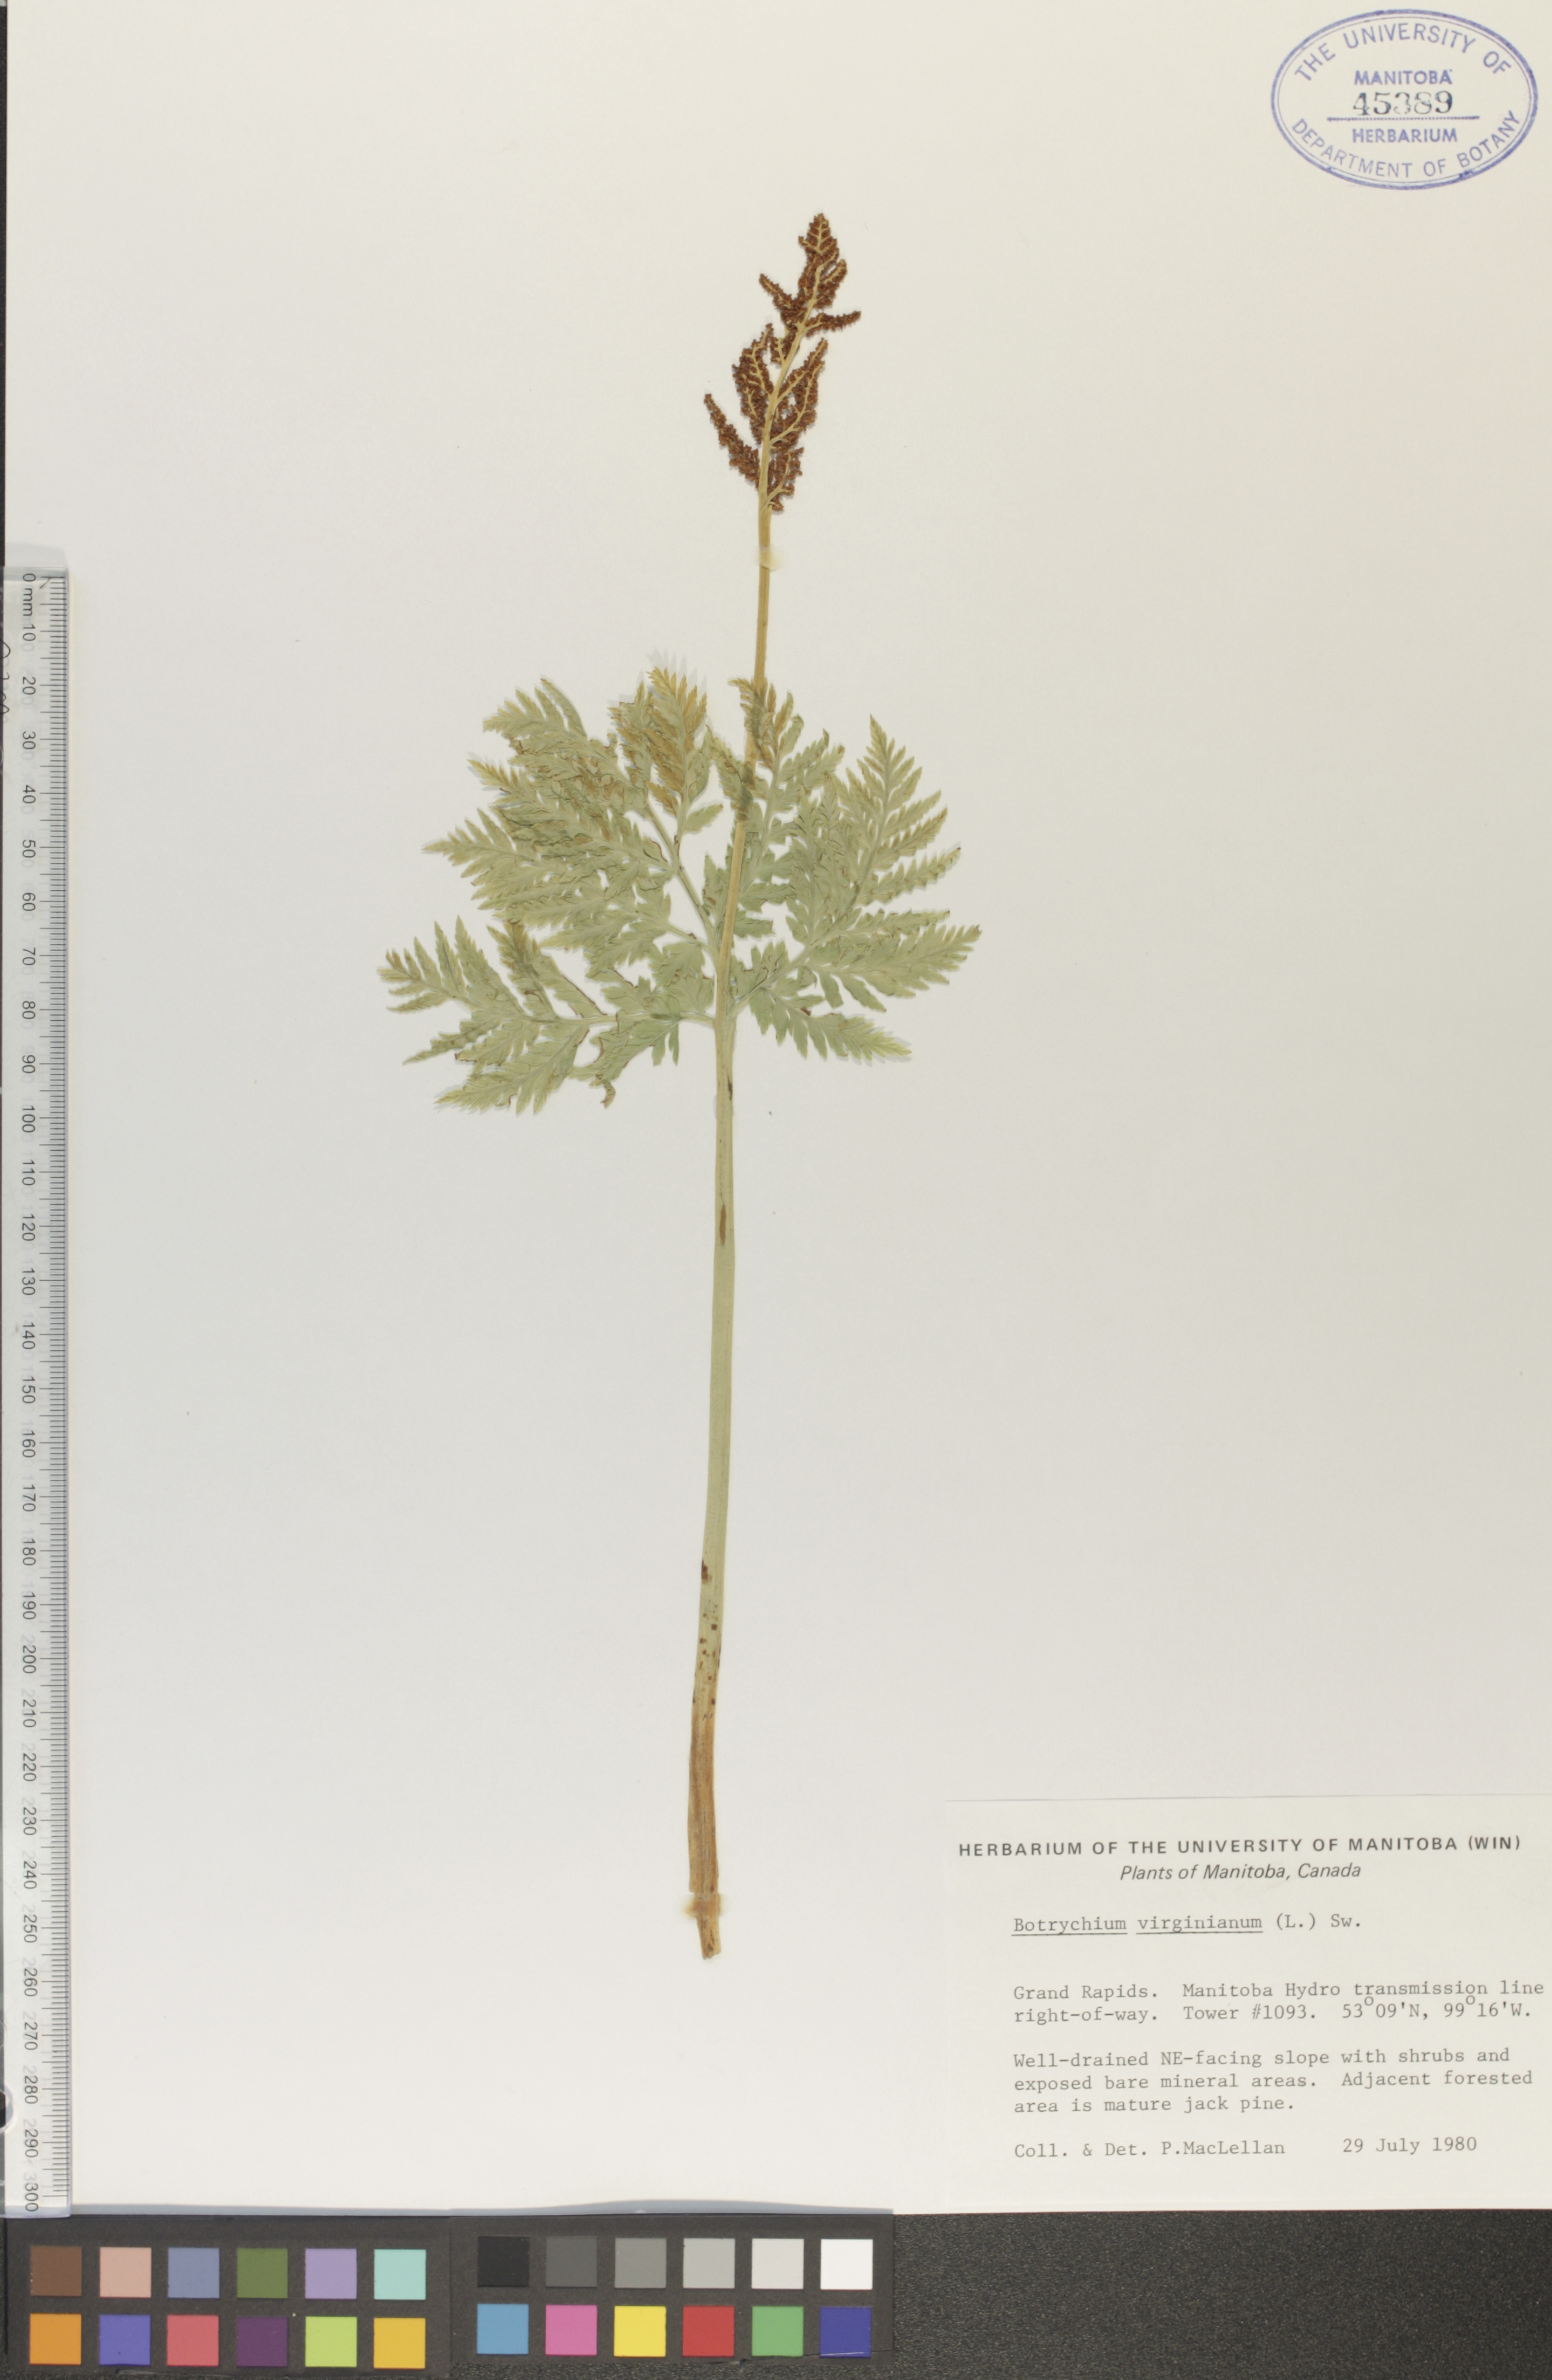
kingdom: Plantae
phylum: Tracheophyta
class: Polypodiopsida
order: Ophioglossales
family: Ophioglossaceae
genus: Botrypus
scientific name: Botrypus virginianus
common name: Common grapefern
